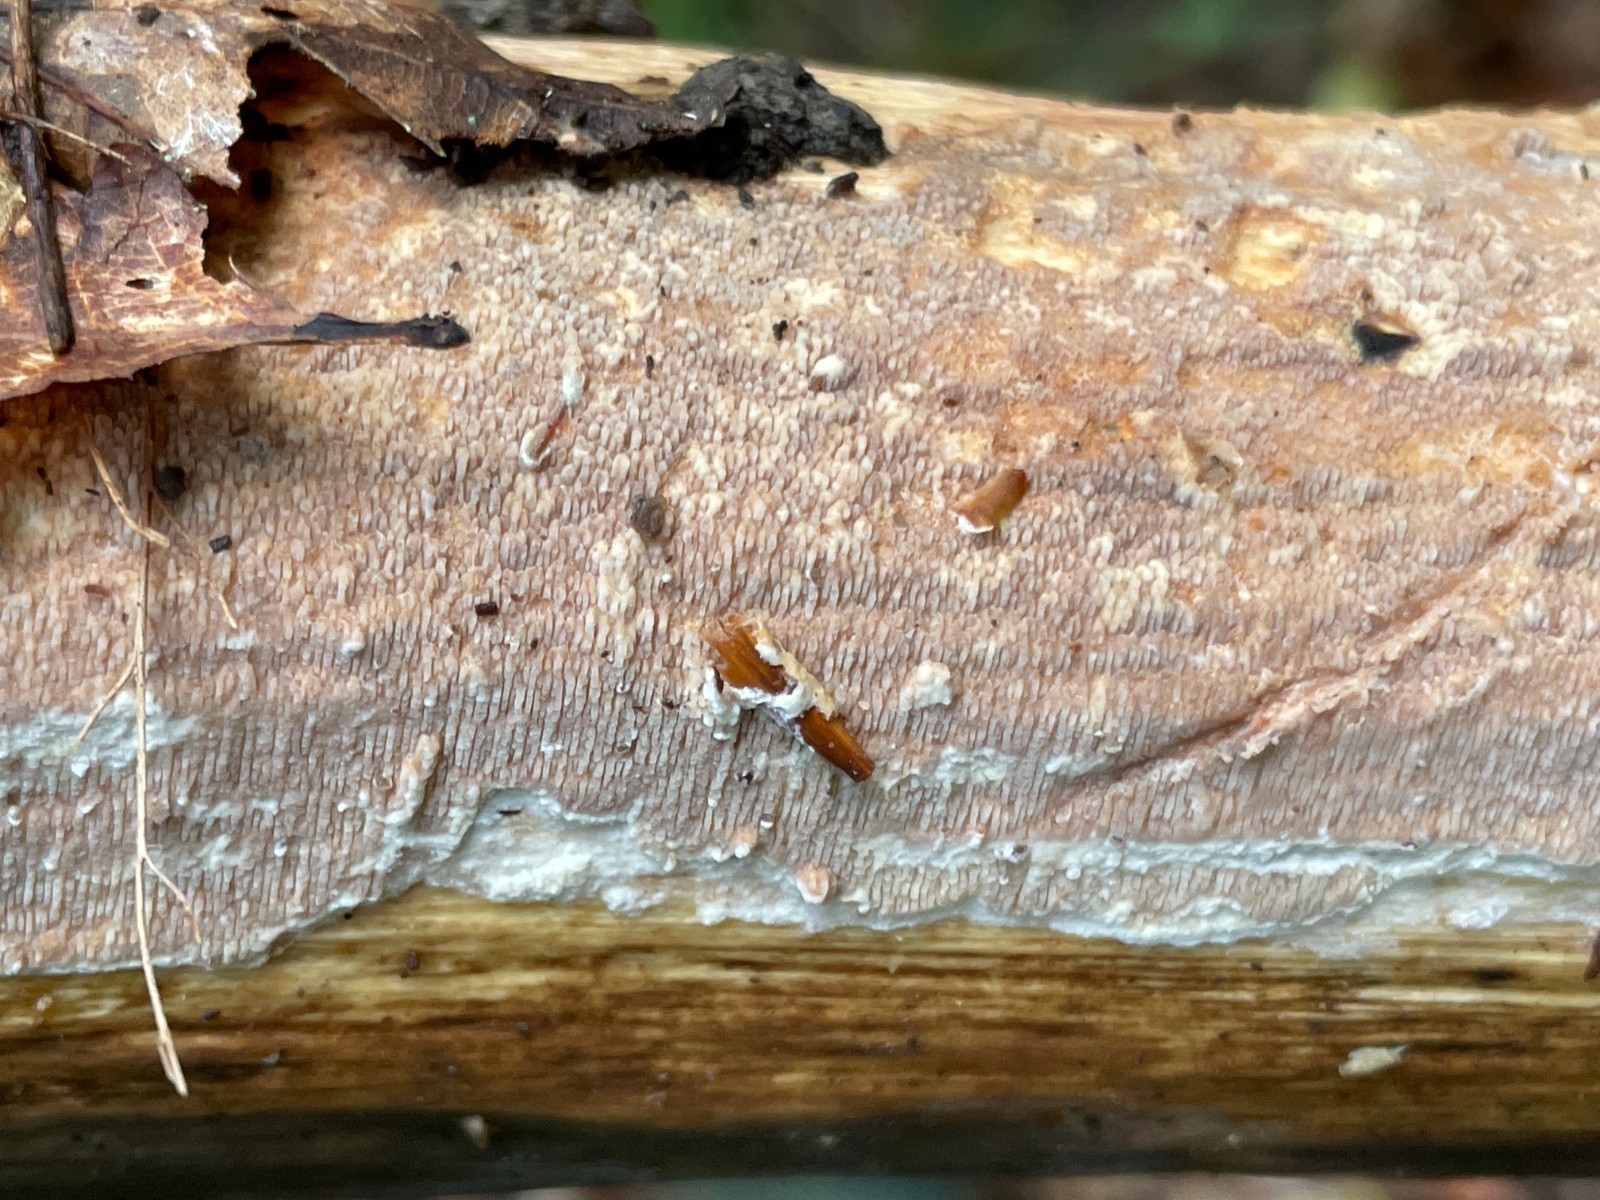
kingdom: Fungi
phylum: Basidiomycota
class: Agaricomycetes
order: Polyporales
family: Meruliaceae
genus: Phlebia
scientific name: Phlebia rufa
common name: ege-åresvamp
